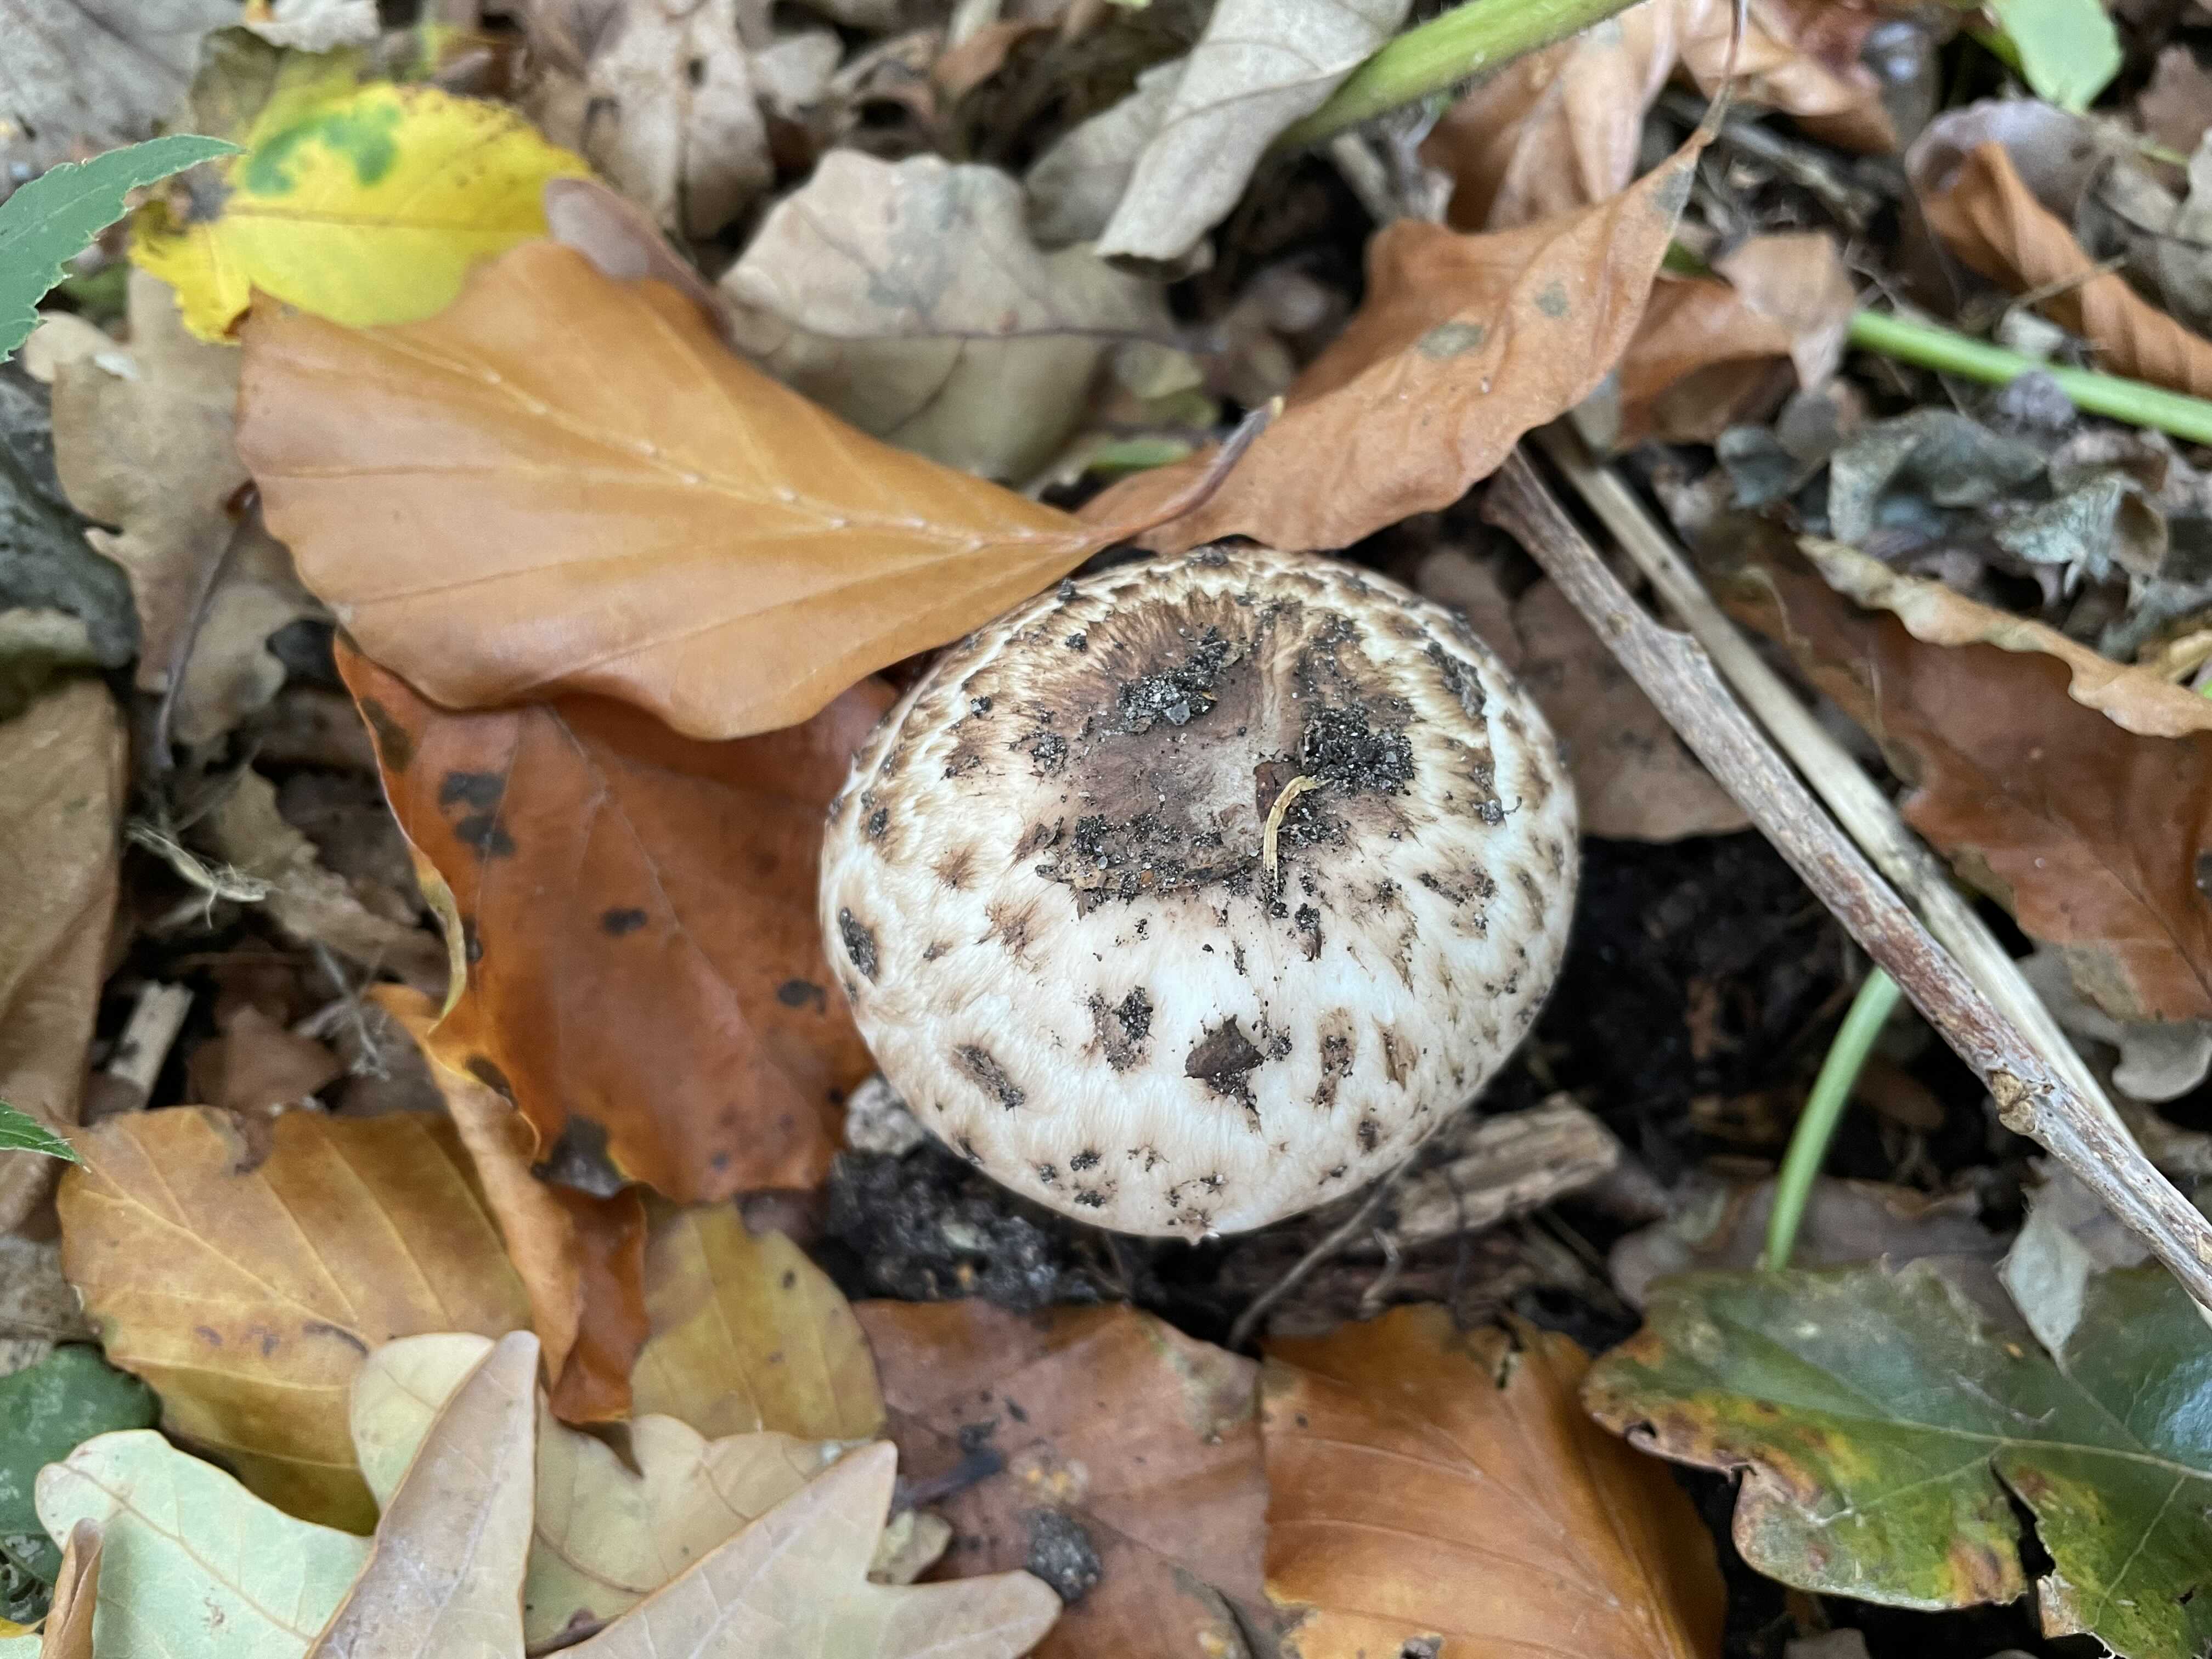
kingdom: Fungi
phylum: Basidiomycota
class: Agaricomycetes
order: Agaricales
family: Agaricaceae
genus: Agaricus
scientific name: Agaricus
